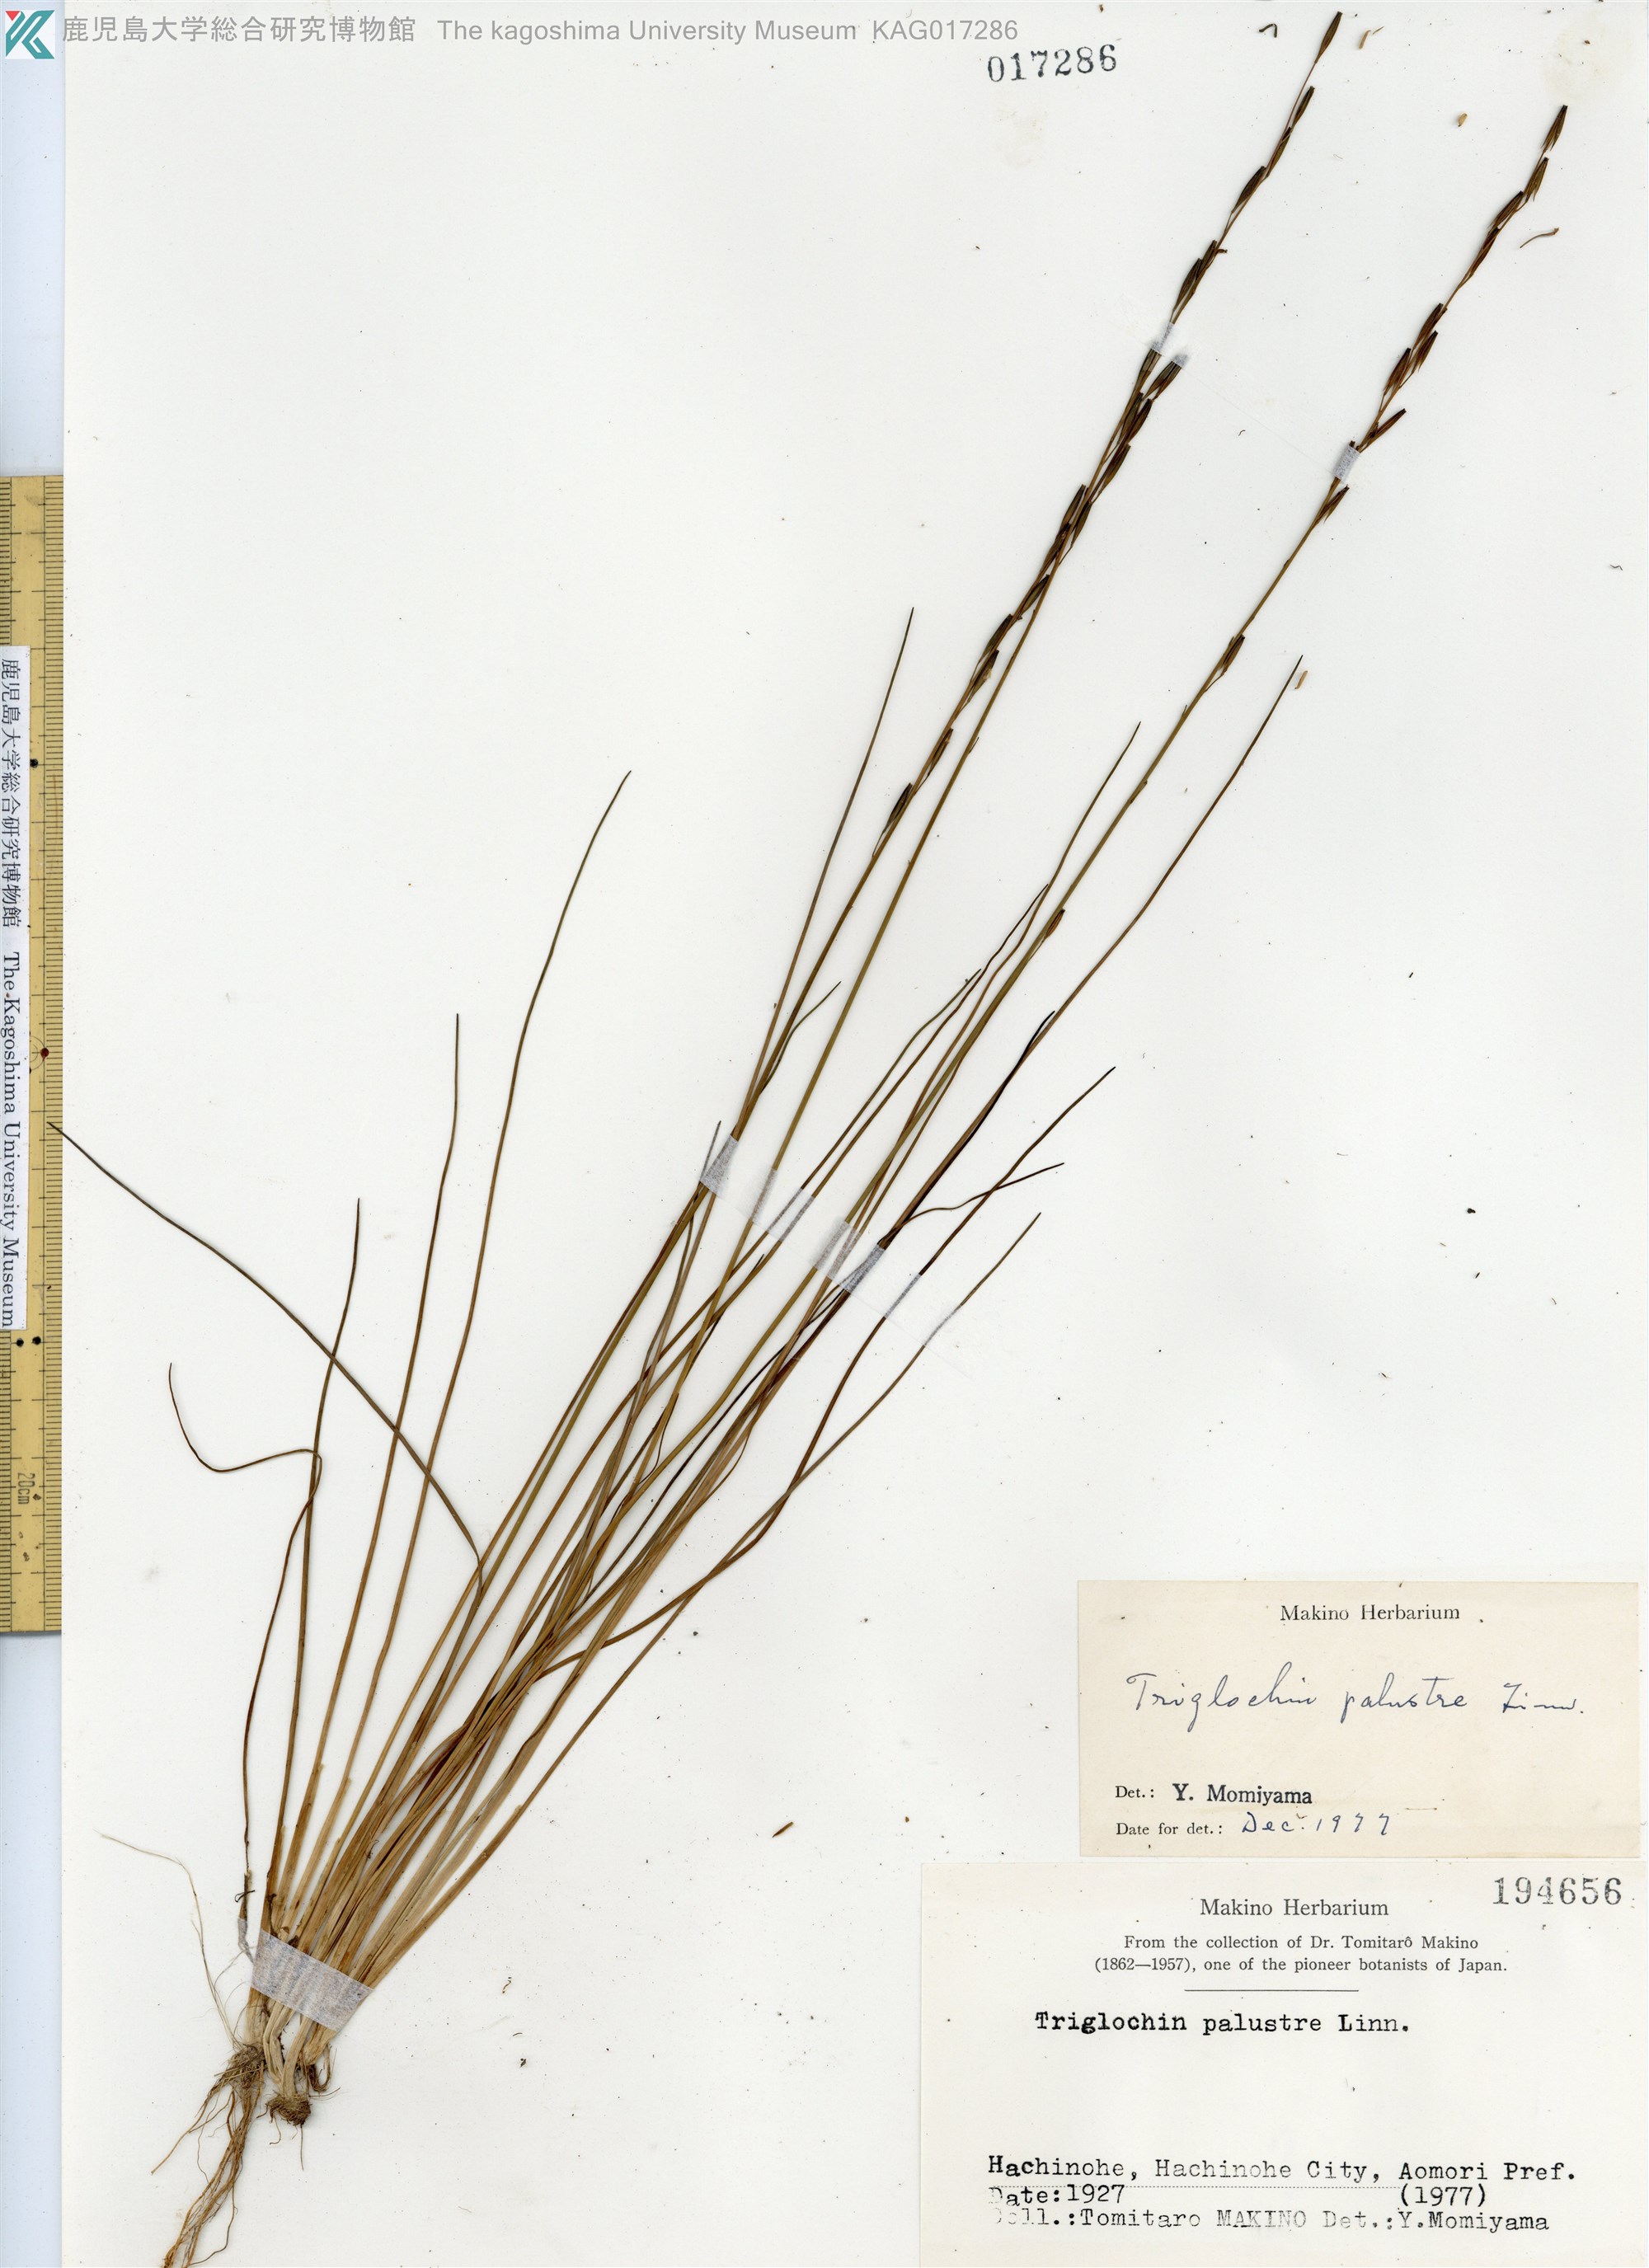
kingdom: Plantae
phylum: Tracheophyta
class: Liliopsida
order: Alismatales
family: Juncaginaceae
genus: Triglochin
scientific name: Triglochin palustris
